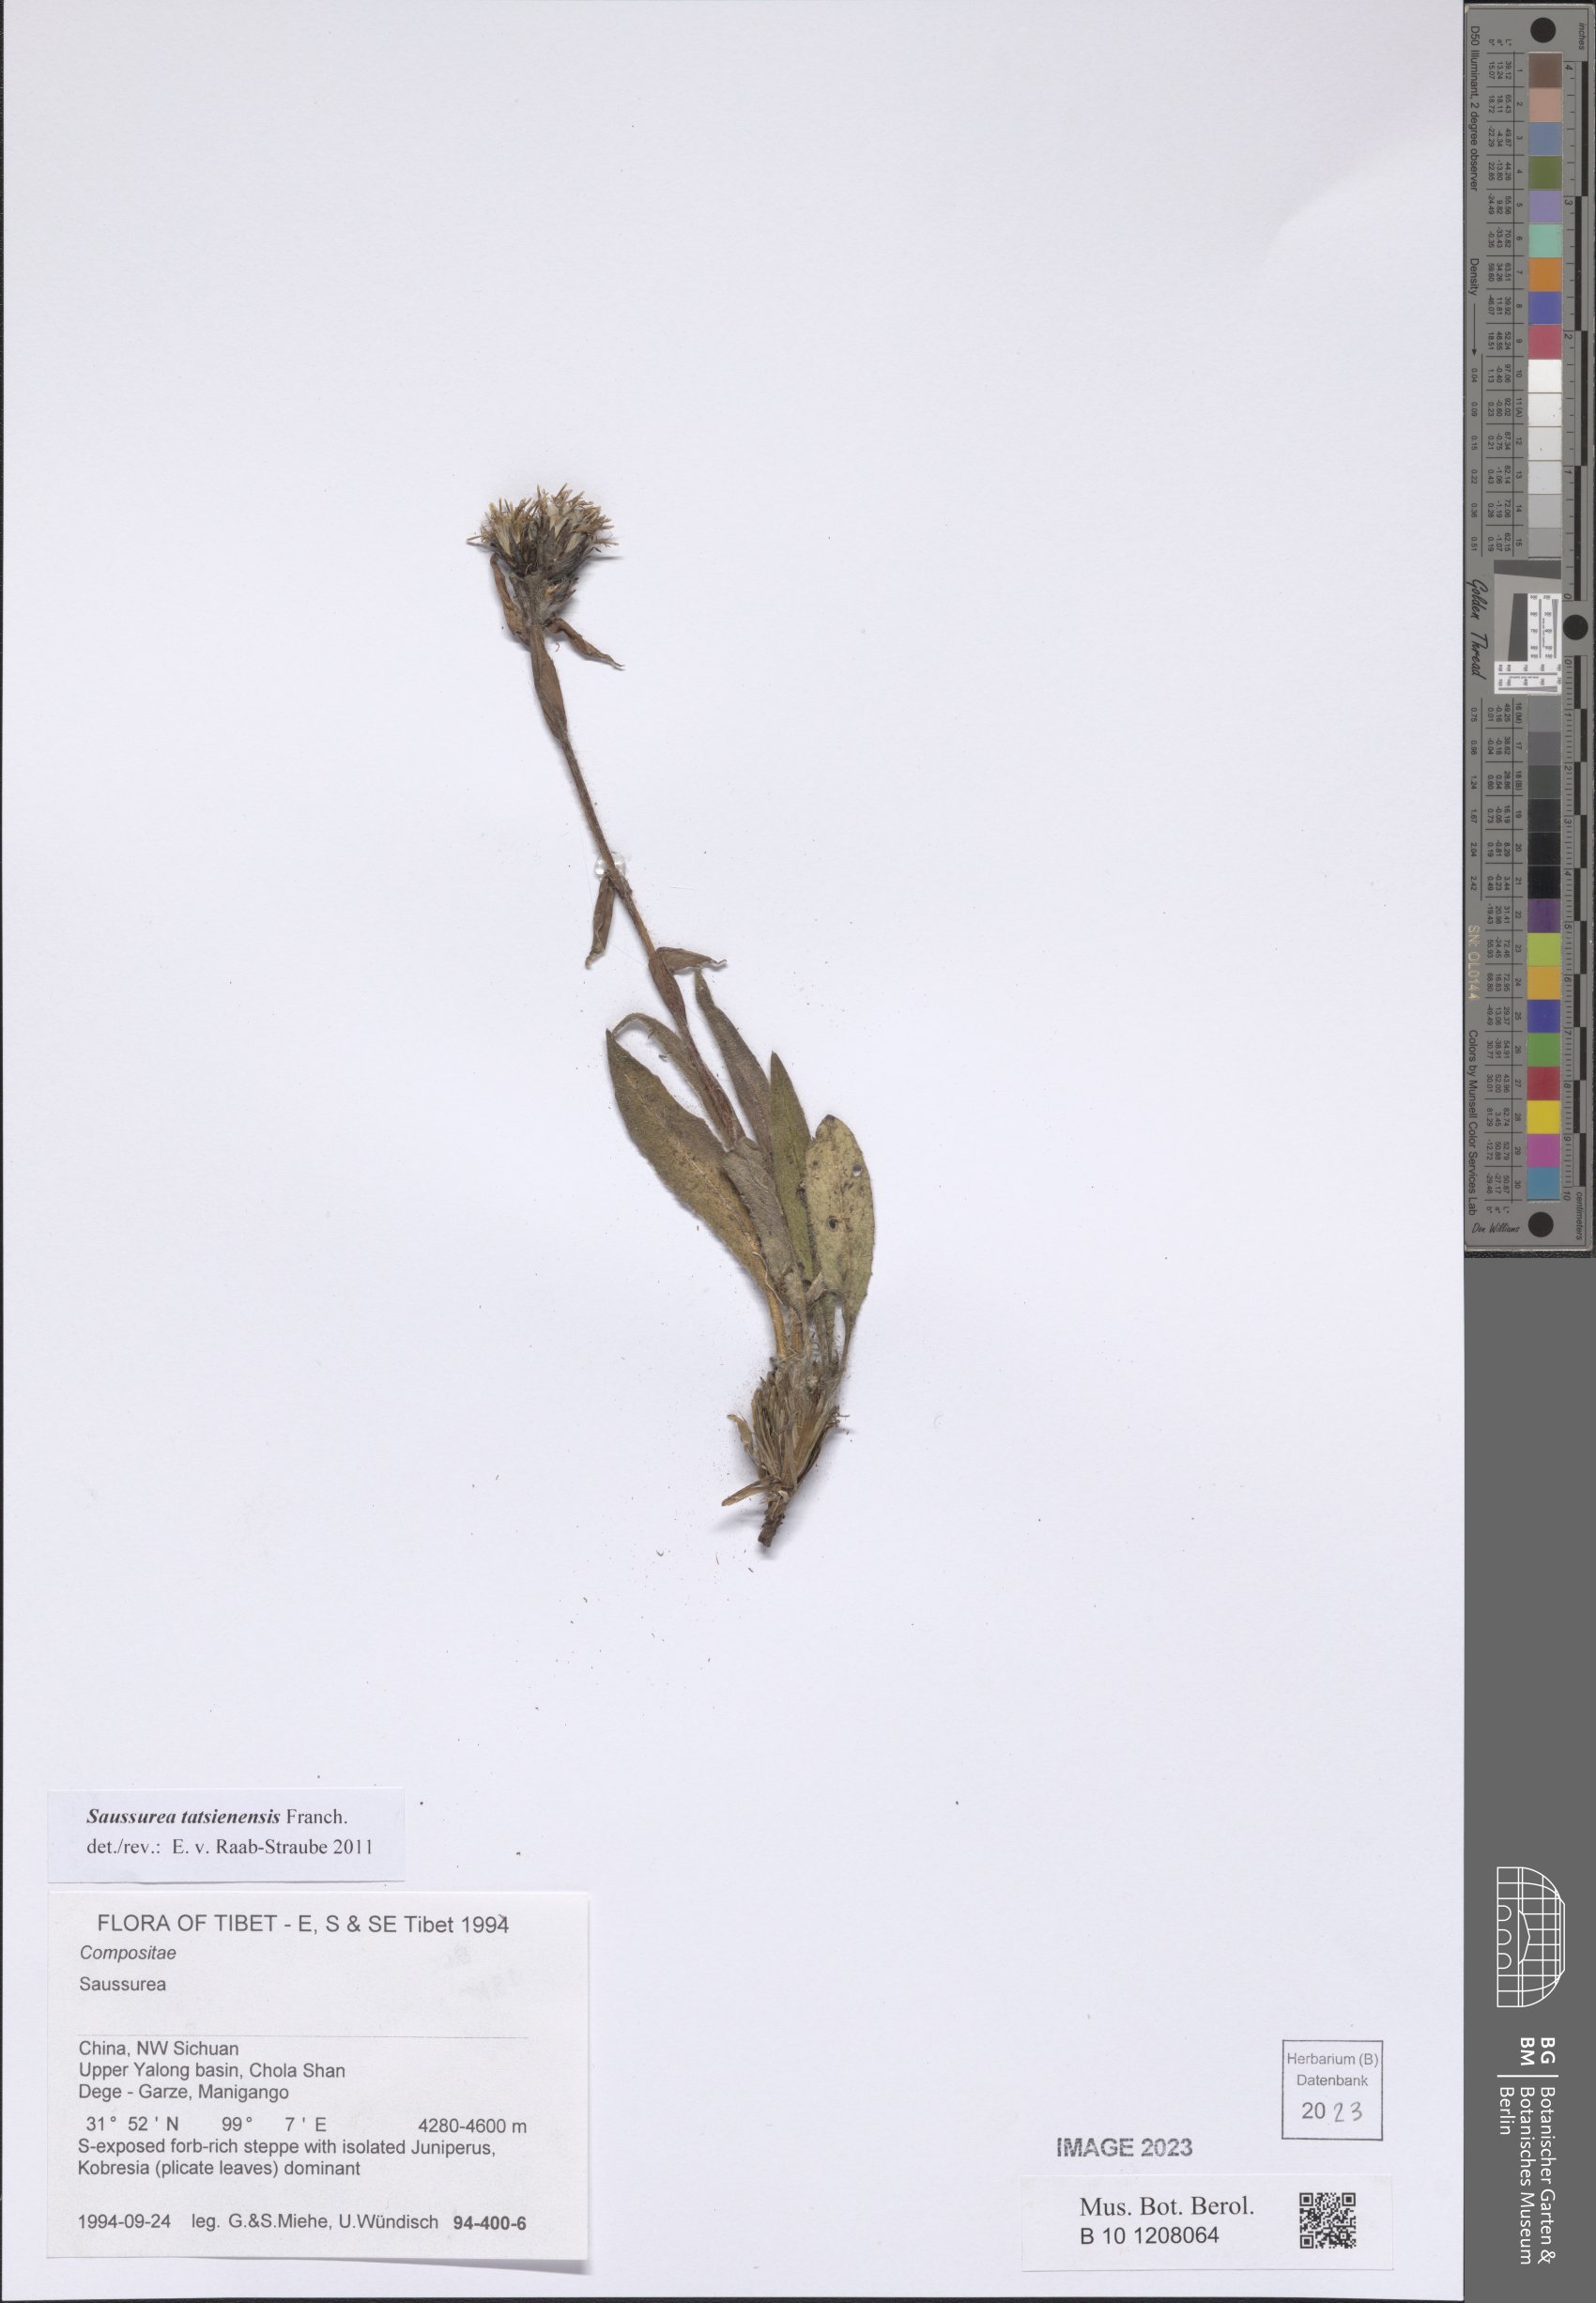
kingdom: Plantae
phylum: Tracheophyta
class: Magnoliopsida
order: Asterales
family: Asteraceae
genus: Saussurea
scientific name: Saussurea tatsienensis
